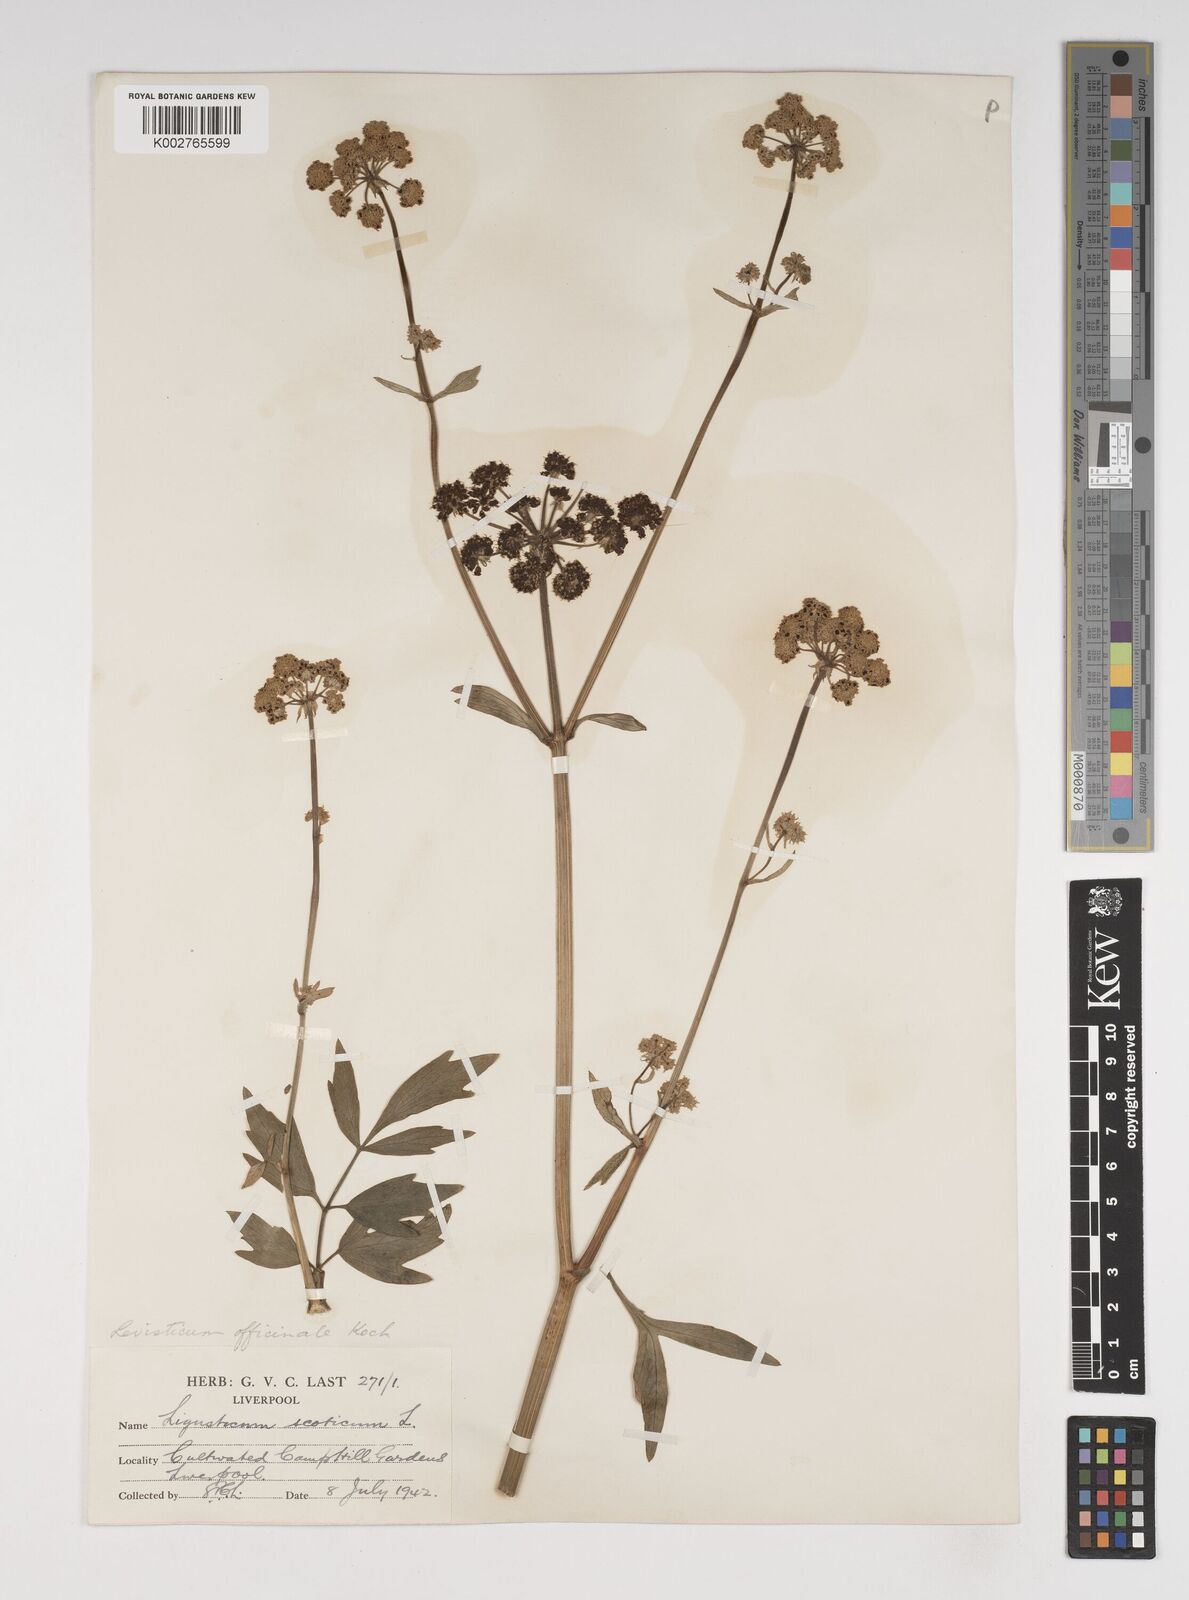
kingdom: Plantae
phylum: Tracheophyta
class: Magnoliopsida
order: Apiales
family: Apiaceae
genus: Levisticum
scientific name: Levisticum officinale
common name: Lovage
